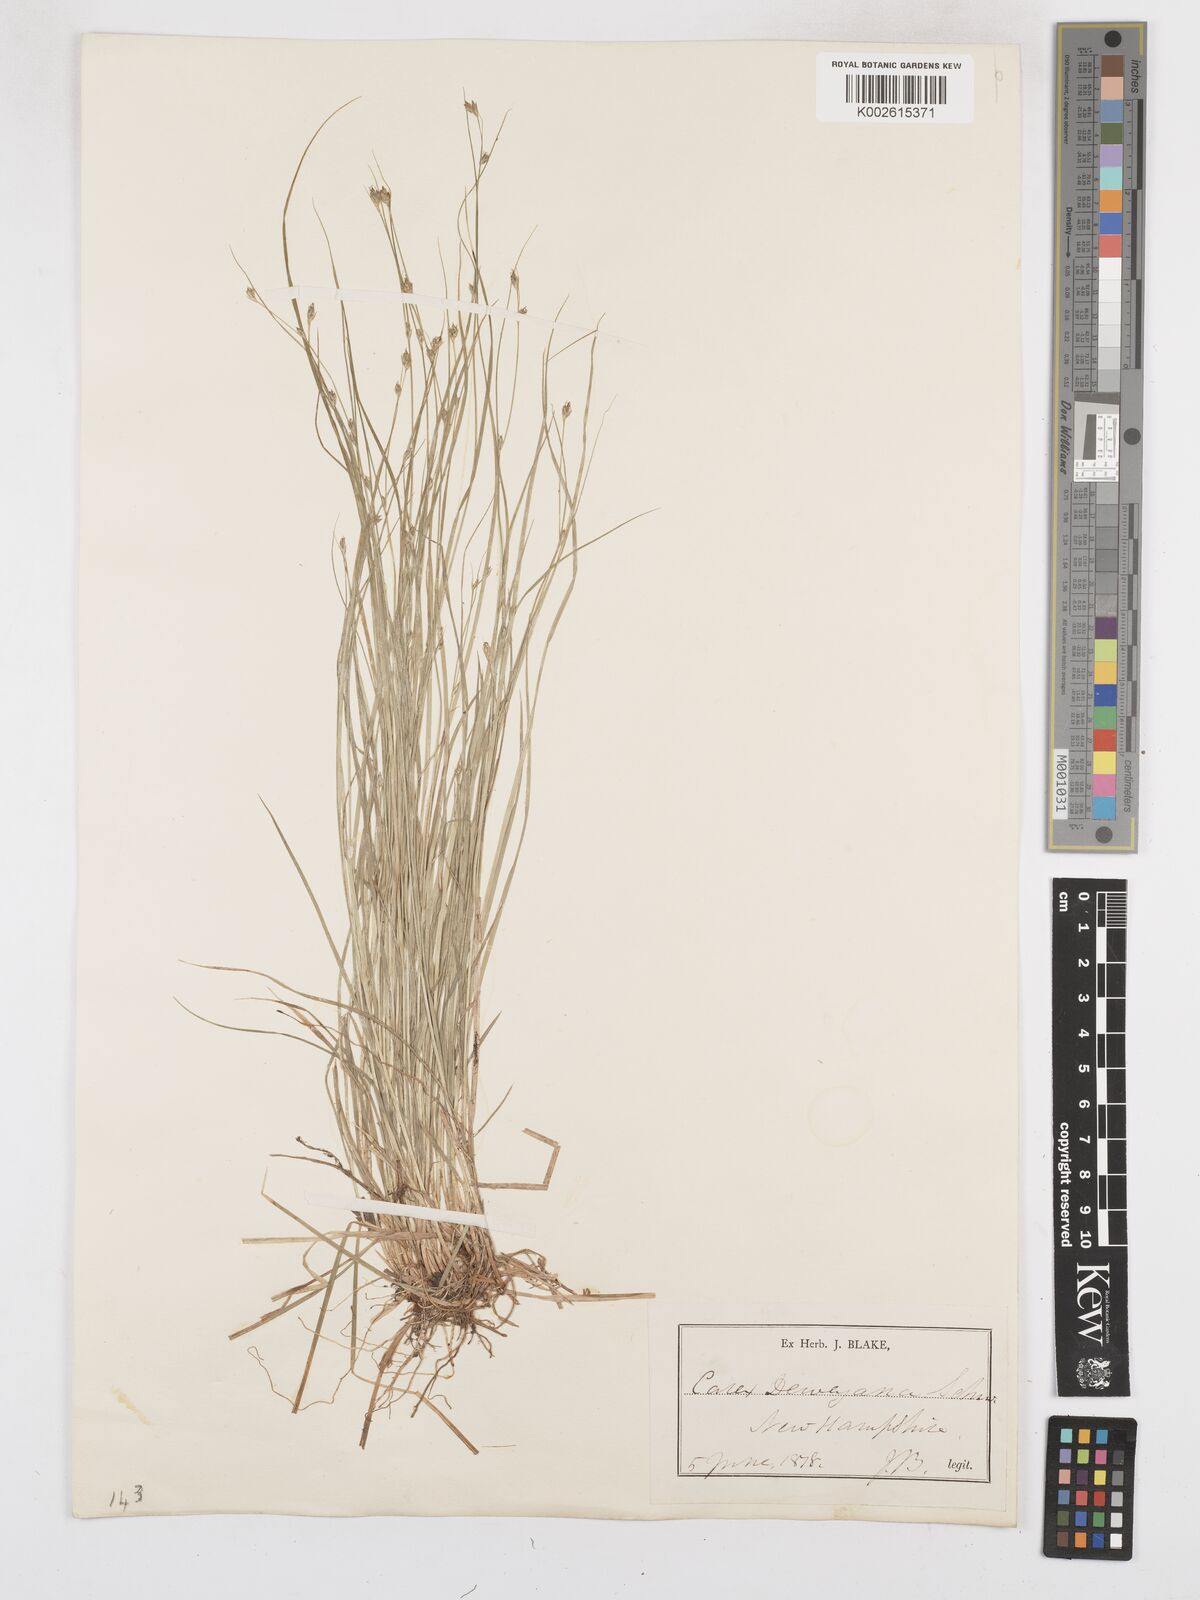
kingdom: Plantae
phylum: Tracheophyta
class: Liliopsida
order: Poales
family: Cyperaceae
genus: Carex
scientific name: Carex deweyana
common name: Dewey's sedge
